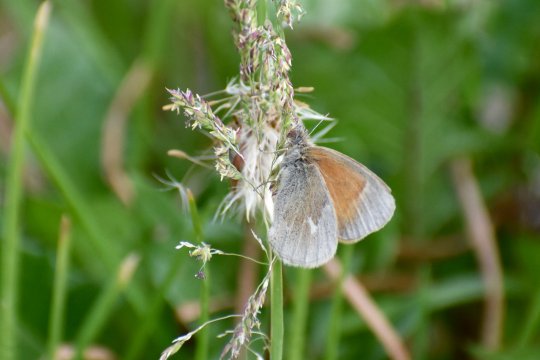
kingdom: Animalia
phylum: Arthropoda
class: Insecta
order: Lepidoptera
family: Nymphalidae
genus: Coenonympha
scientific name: Coenonympha california
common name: California Ringlet
